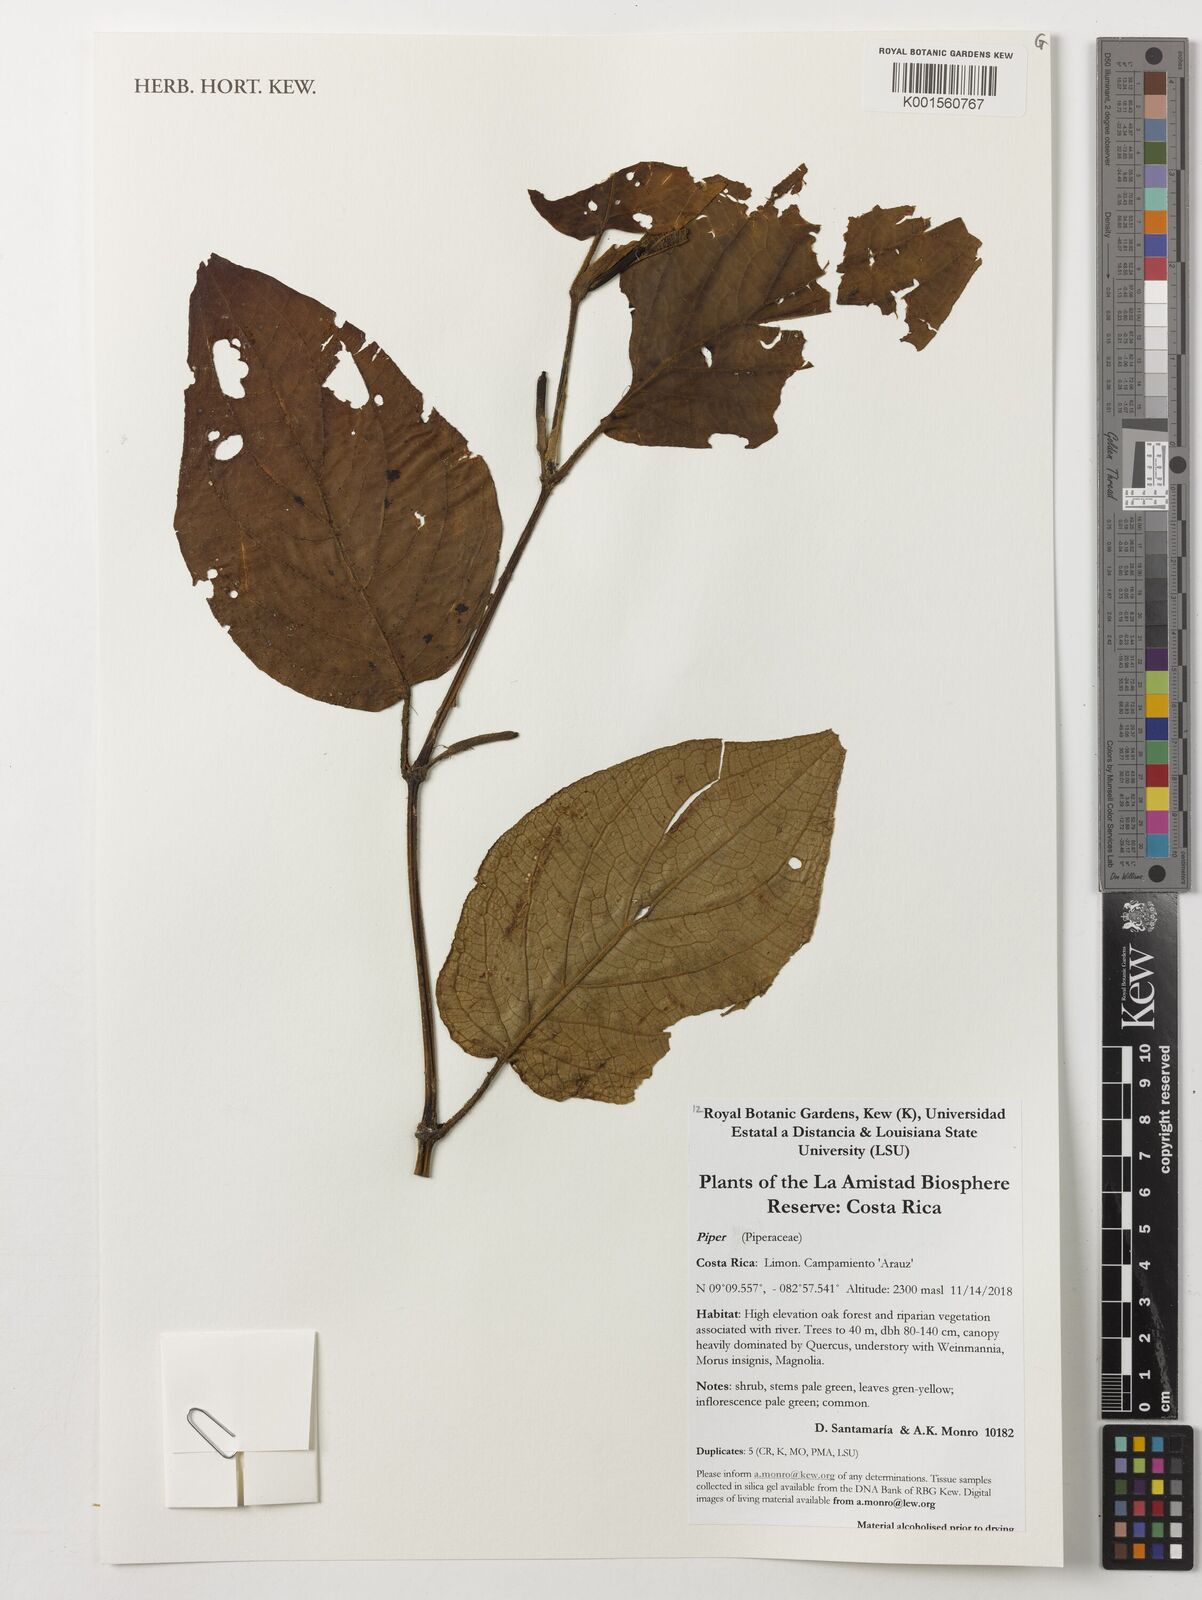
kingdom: Plantae
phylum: Tracheophyta
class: Magnoliopsida
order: Piperales
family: Piperaceae
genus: Piper
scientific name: Piper
